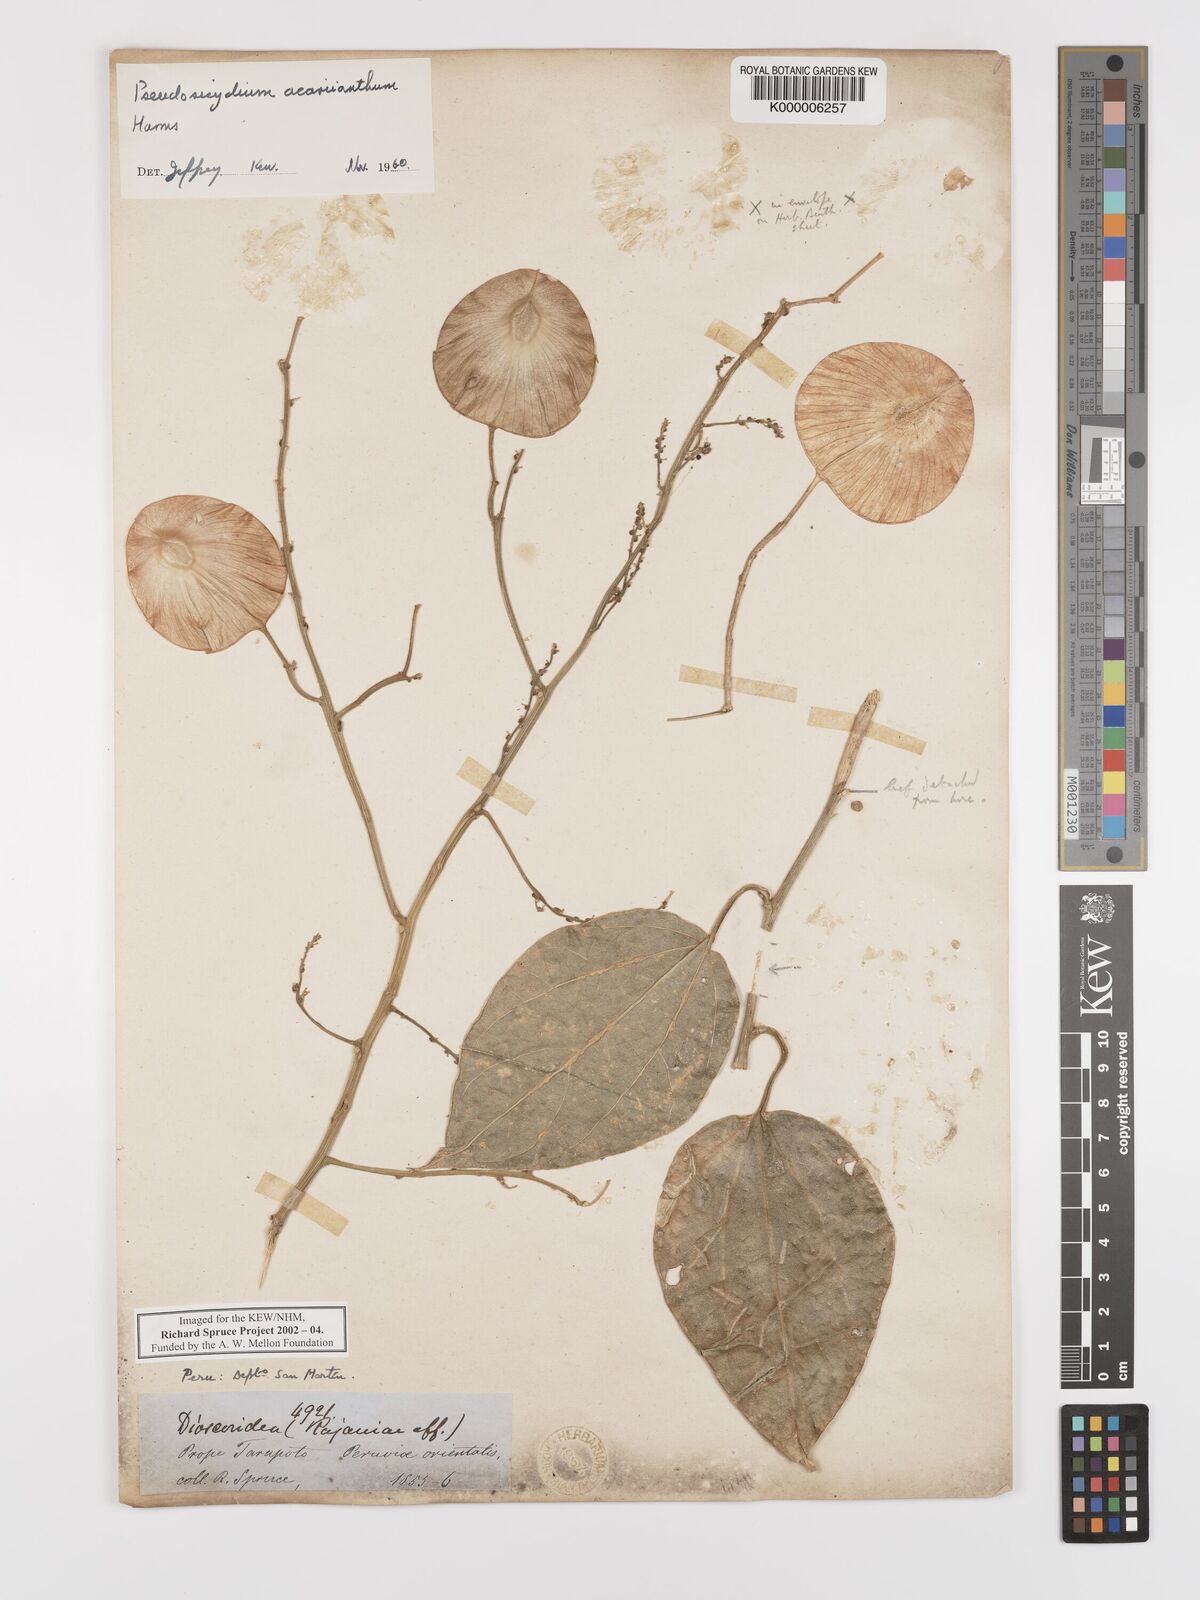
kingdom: Plantae
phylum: Tracheophyta
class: Magnoliopsida
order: Cucurbitales
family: Cucurbitaceae
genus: Pteropepon
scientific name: Pteropepon
